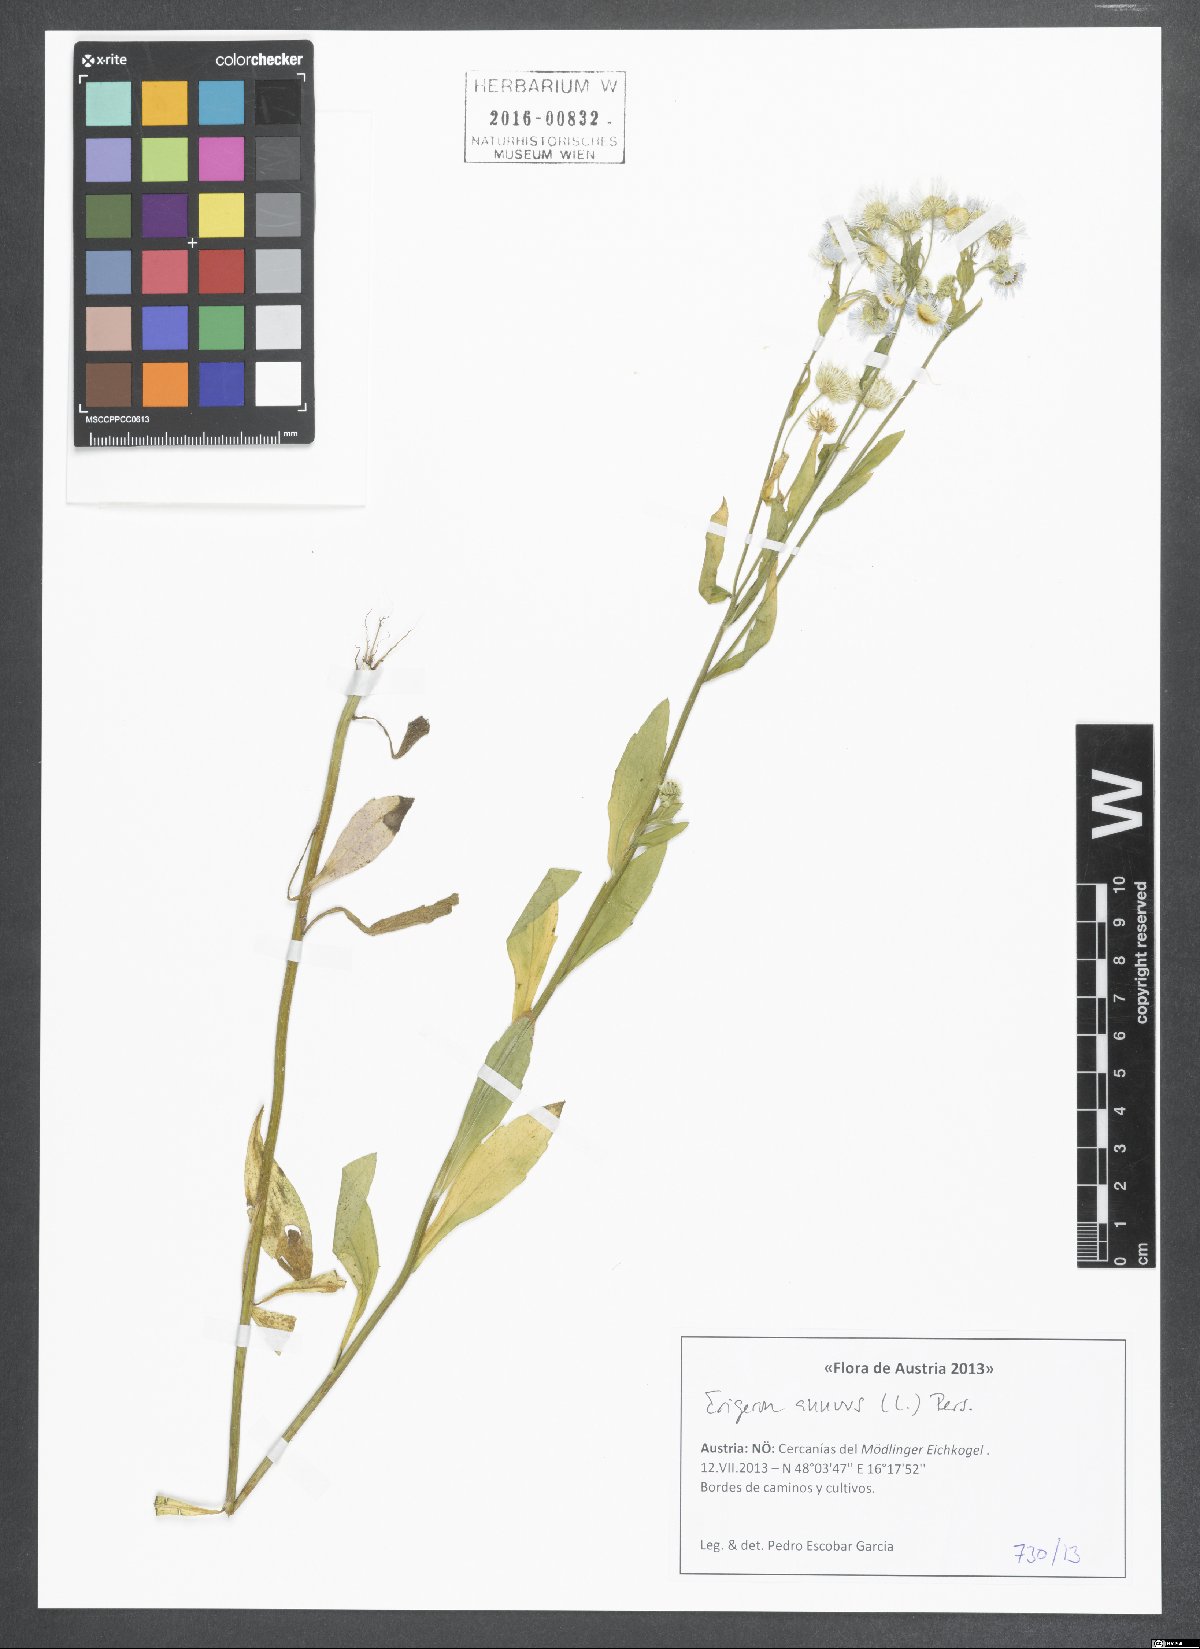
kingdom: Plantae
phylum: Tracheophyta
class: Magnoliopsida
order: Asterales
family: Asteraceae
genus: Erigeron
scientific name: Erigeron annuus
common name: Tall fleabane
